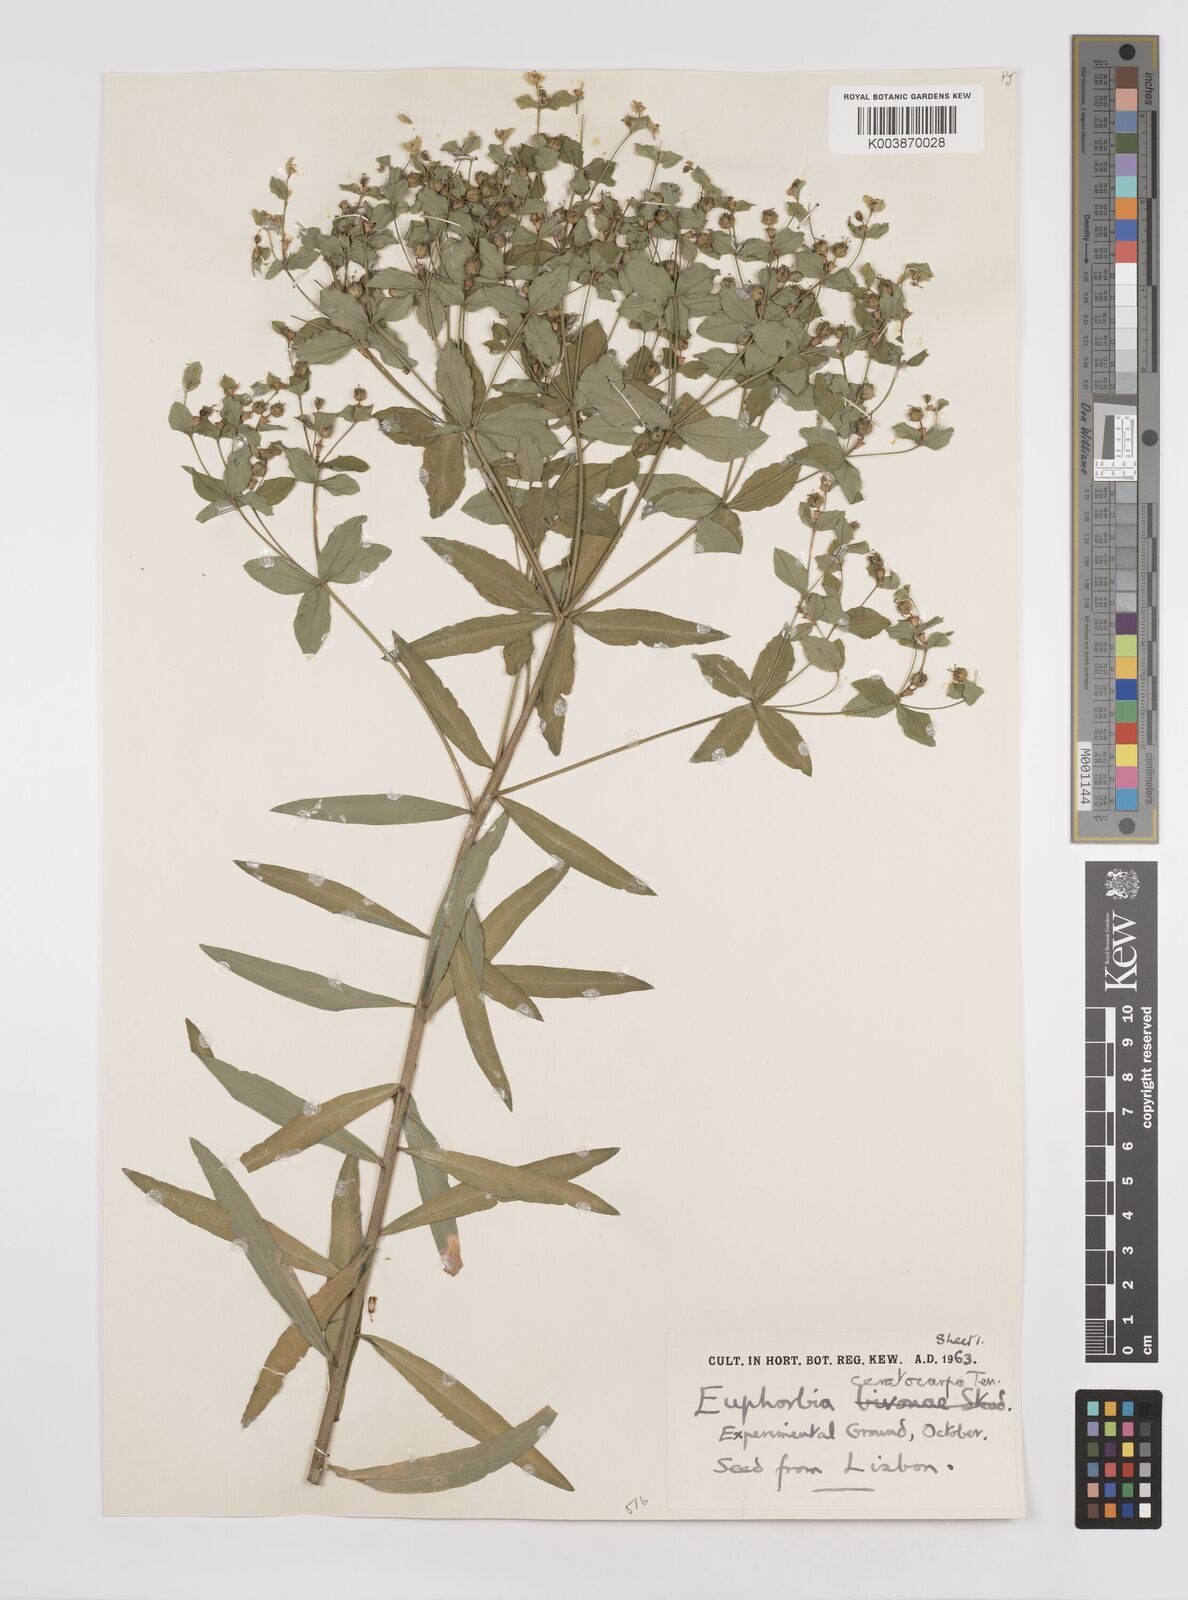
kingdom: Plantae
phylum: Tracheophyta
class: Magnoliopsida
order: Malpighiales
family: Euphorbiaceae
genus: Euphorbia
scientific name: Euphorbia ceratocarpa
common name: Horned spurge
